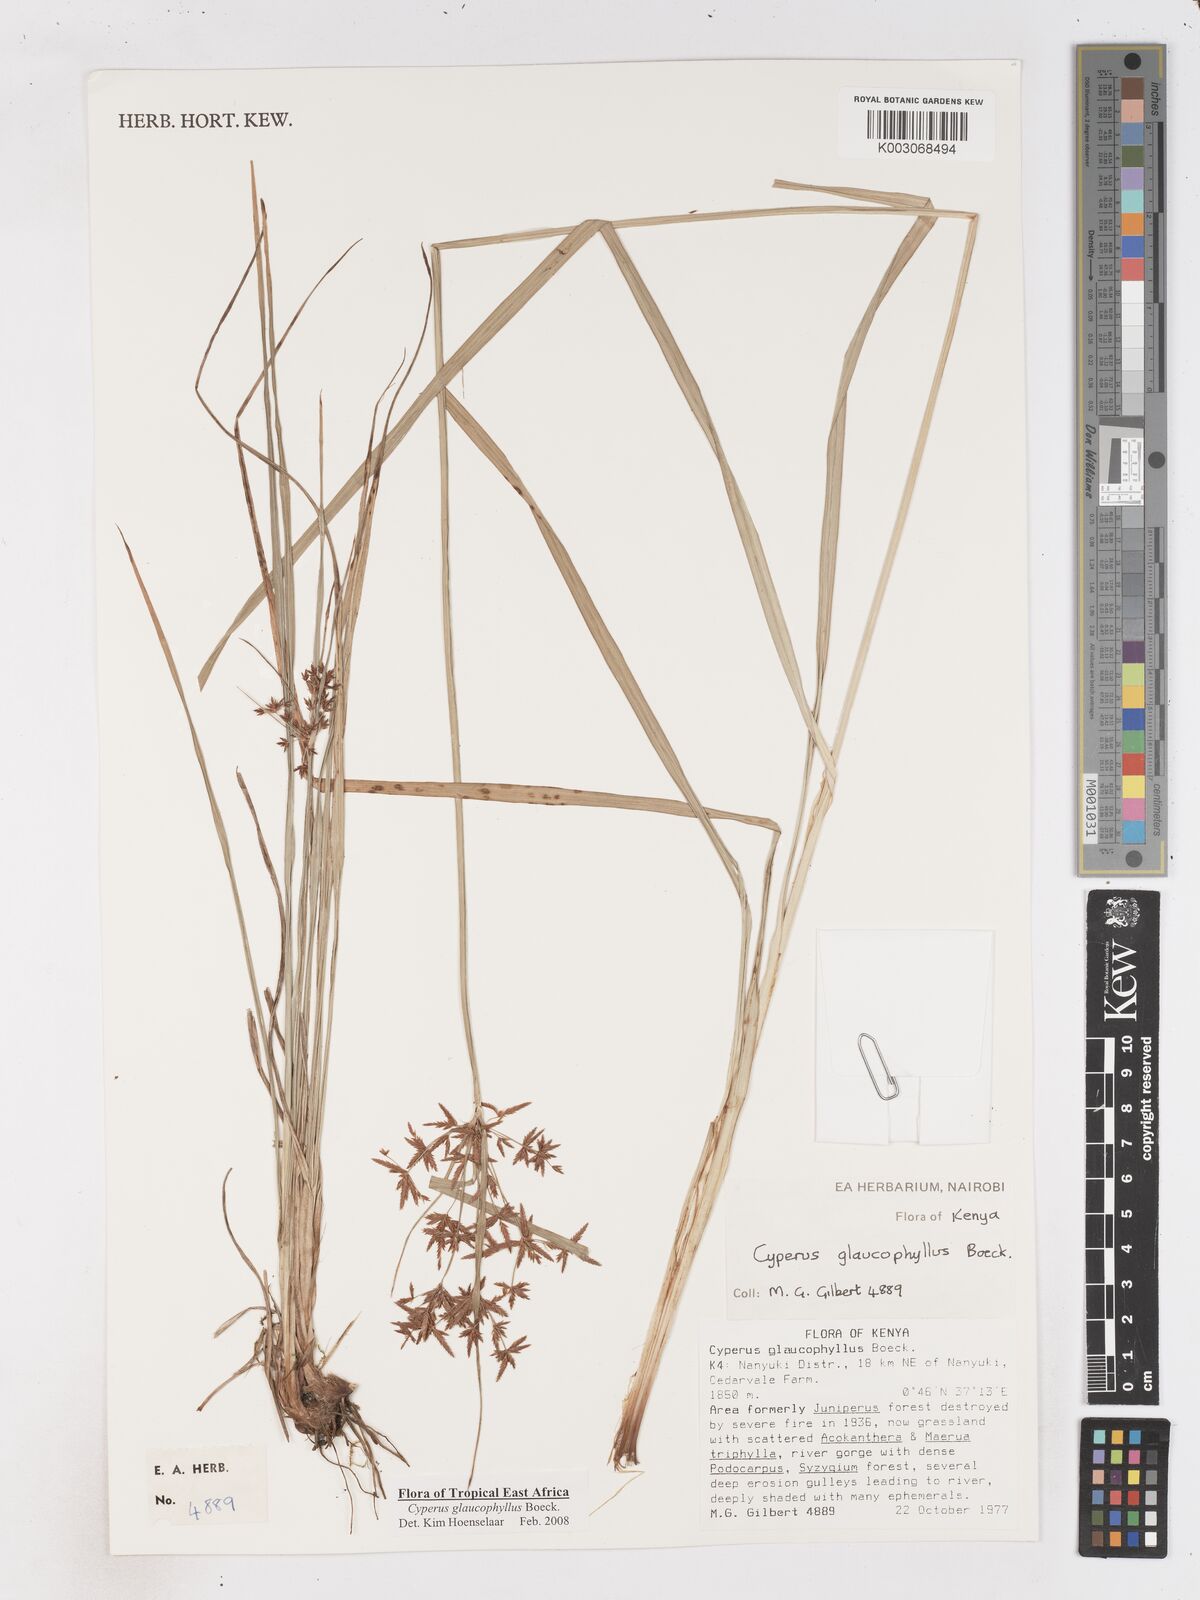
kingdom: Plantae
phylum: Tracheophyta
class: Liliopsida
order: Poales
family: Cyperaceae
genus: Cyperus
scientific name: Cyperus glaucophyllus
